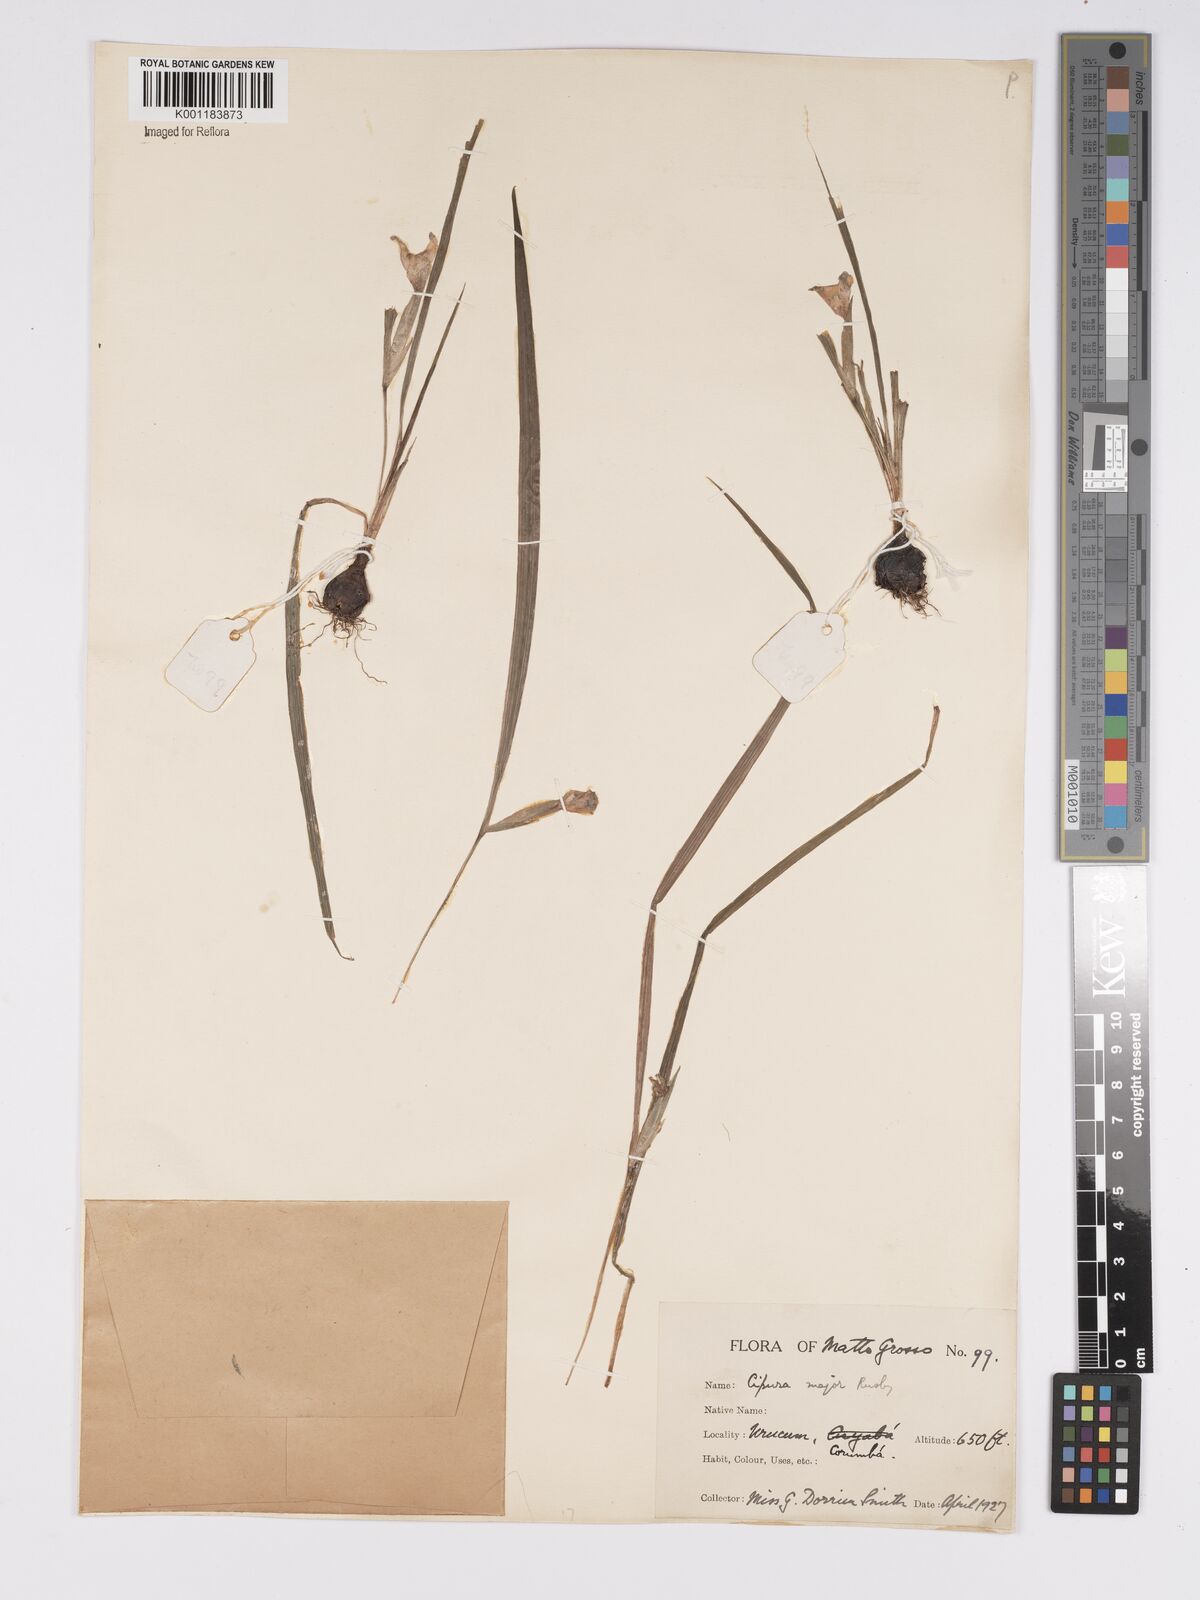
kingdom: Plantae
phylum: Tracheophyta
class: Liliopsida
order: Asparagales
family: Iridaceae
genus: Cipura
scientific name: Cipura paludosa
